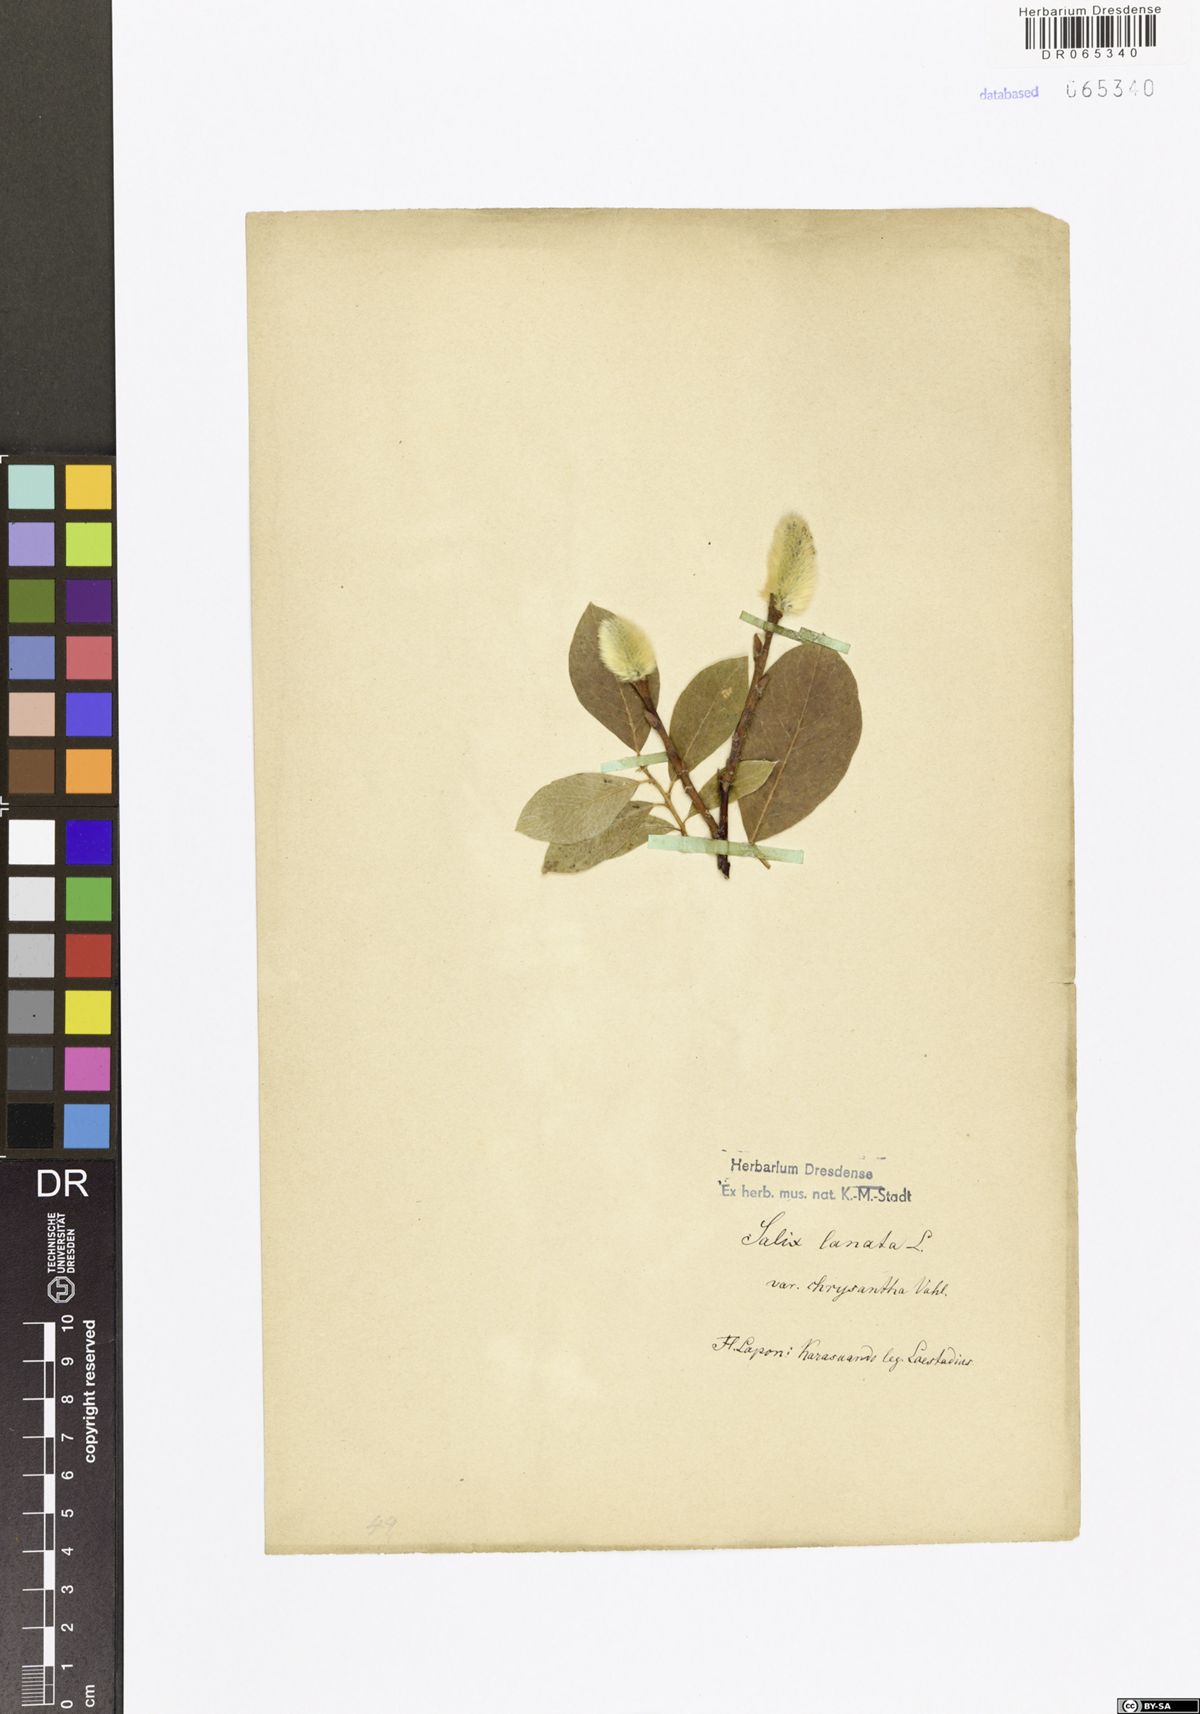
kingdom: Plantae
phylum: Tracheophyta
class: Magnoliopsida
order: Malpighiales
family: Salicaceae
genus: Salix
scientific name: Salix lanata
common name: Woolly willow
